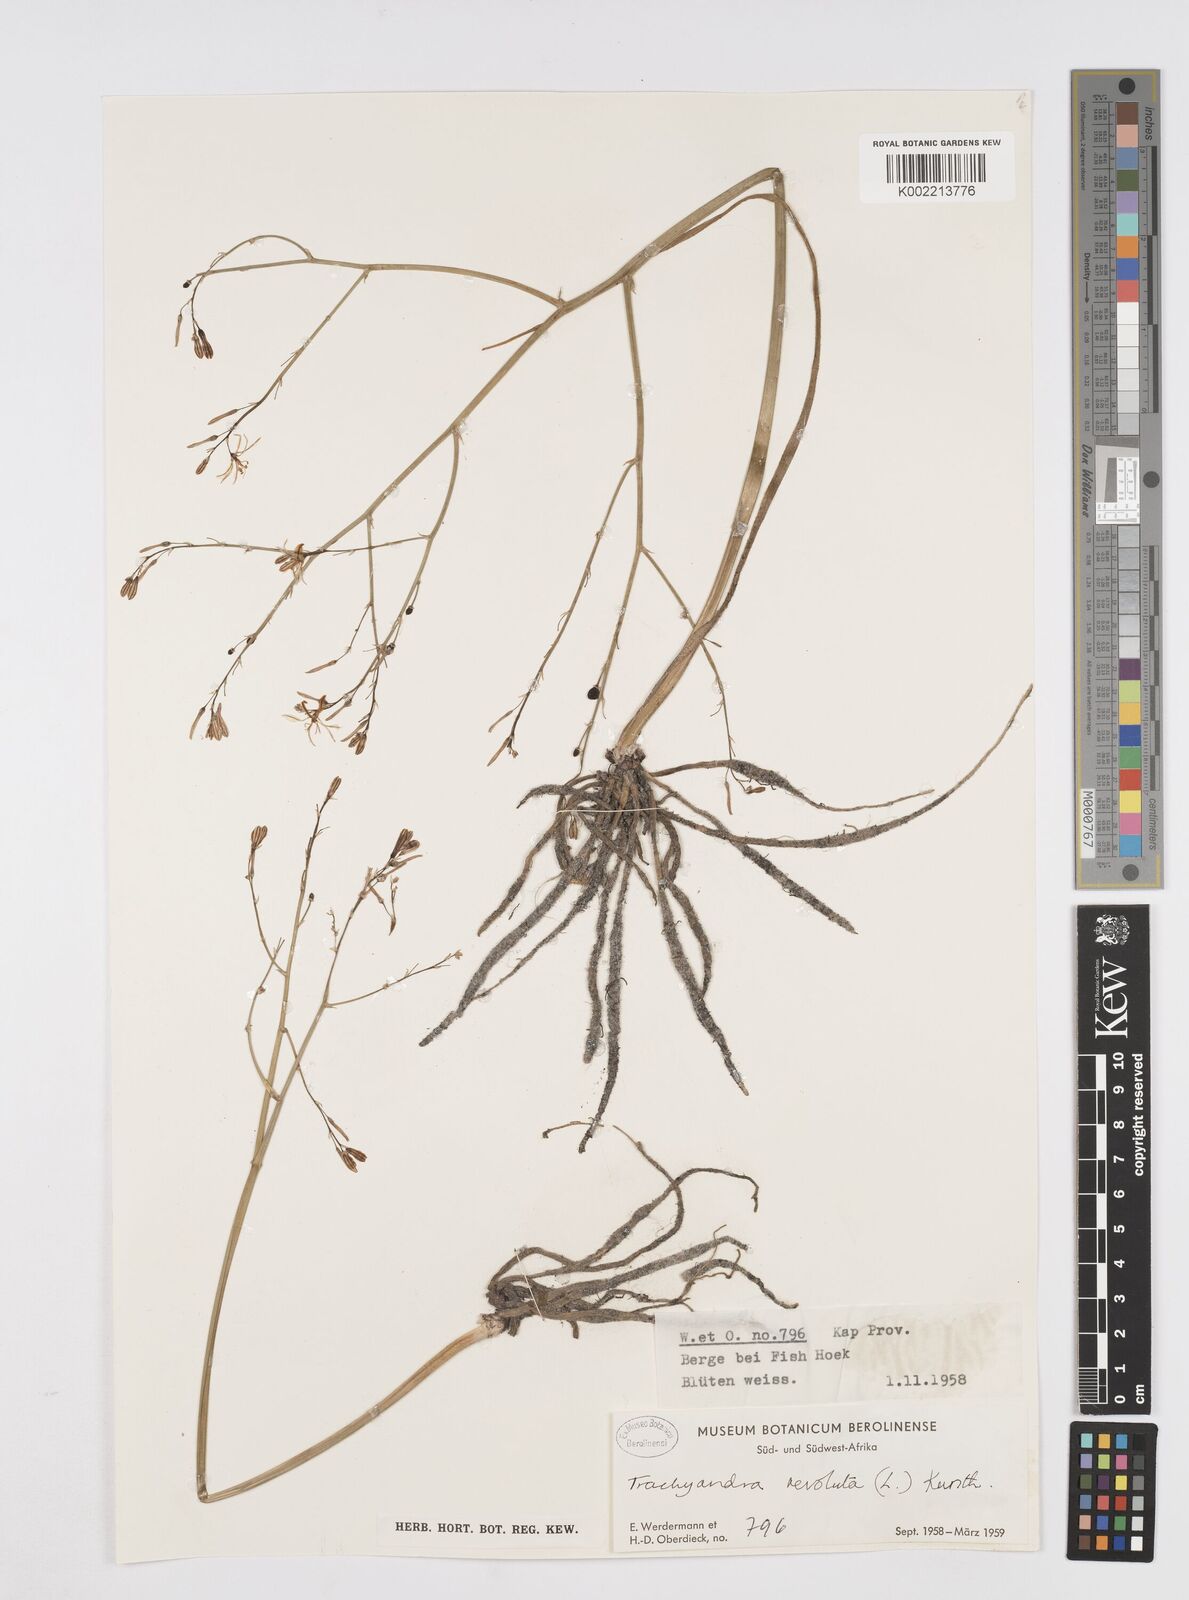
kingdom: Plantae
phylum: Tracheophyta
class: Liliopsida
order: Asparagales
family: Asphodelaceae
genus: Trachyandra
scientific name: Trachyandra revoluta
